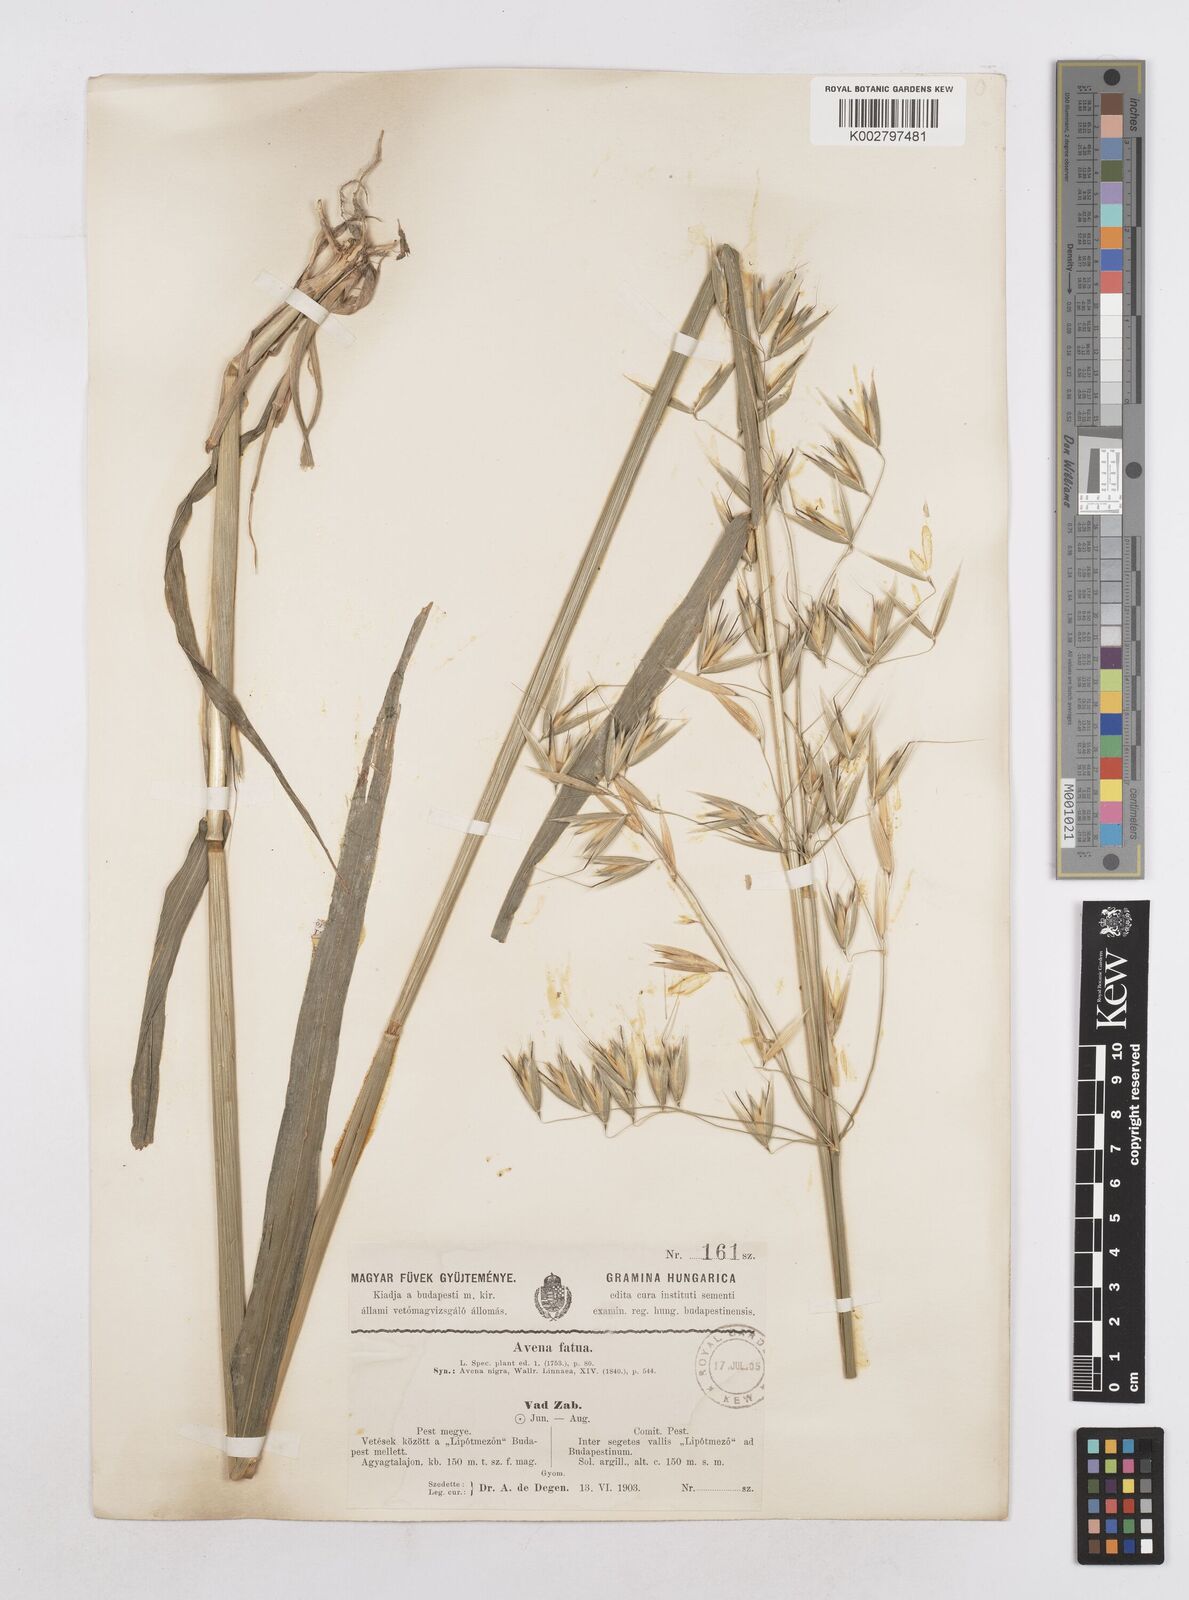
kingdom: Plantae
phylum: Tracheophyta
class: Liliopsida
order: Poales
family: Poaceae
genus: Avena
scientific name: Avena fatua
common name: Wild oat
